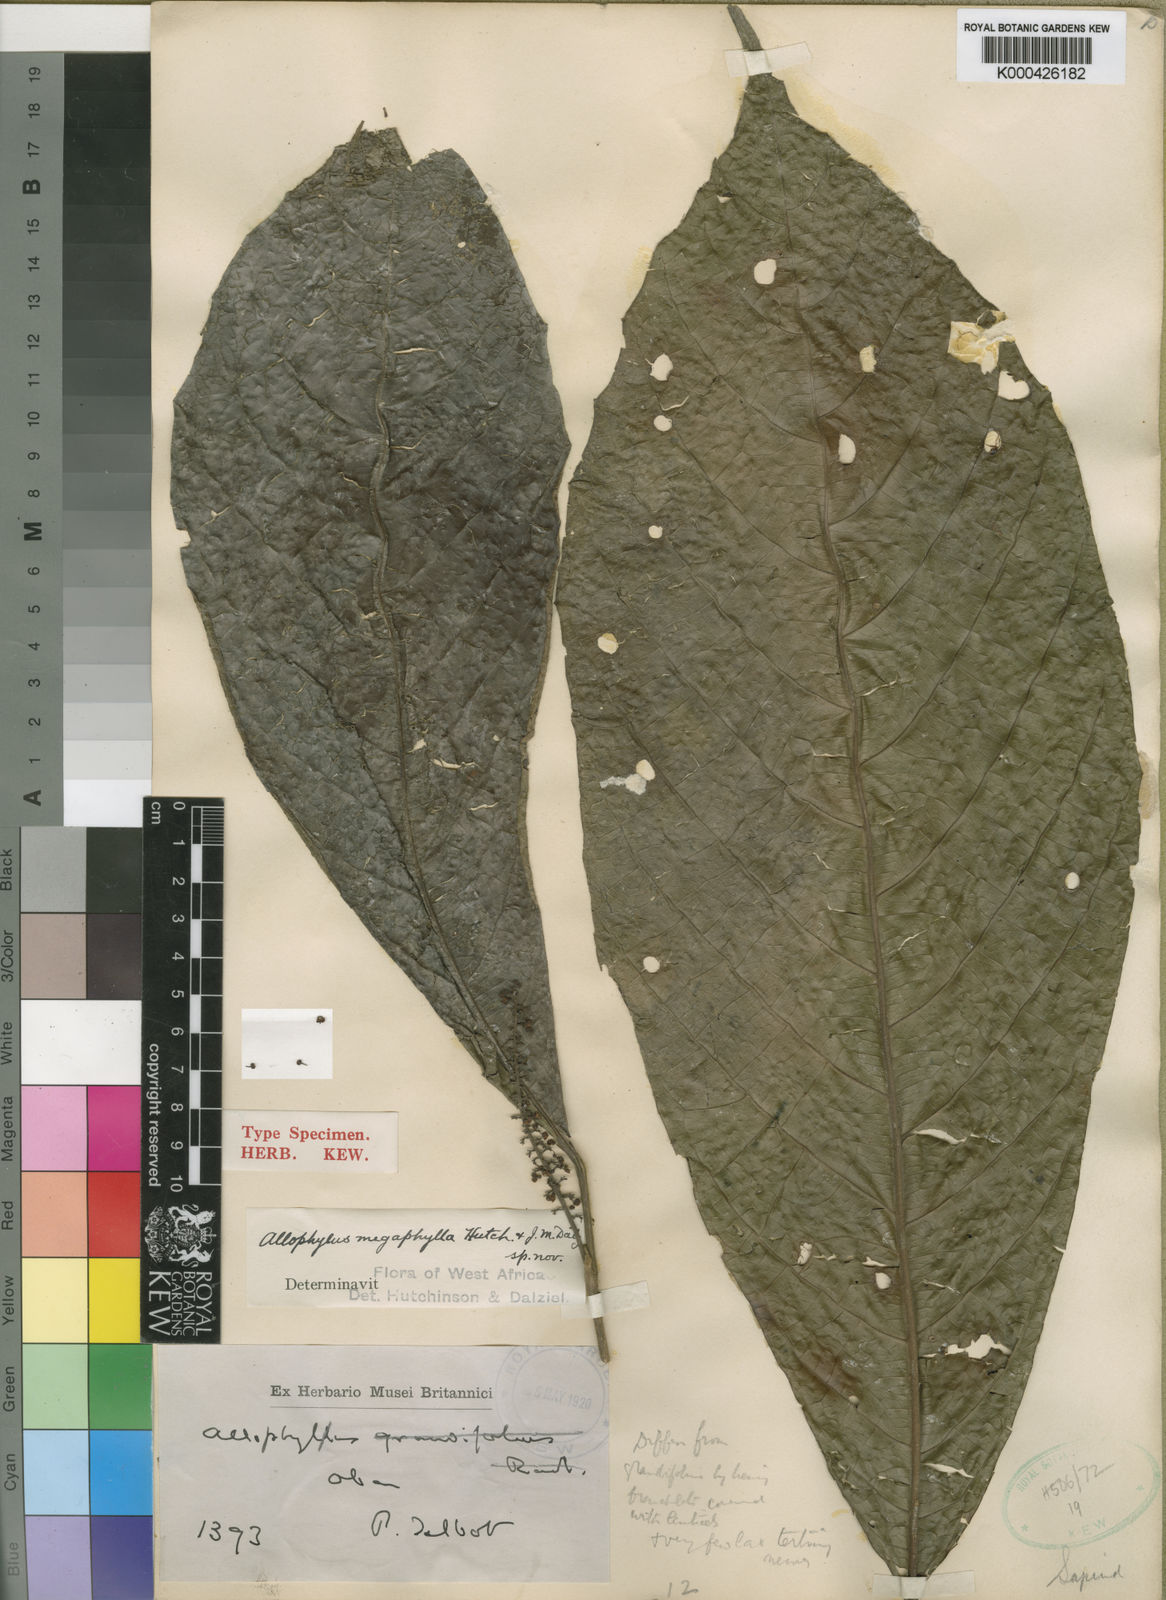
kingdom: Plantae
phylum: Tracheophyta
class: Magnoliopsida
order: Sapindales
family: Sapindaceae
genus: Allophylus
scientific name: Allophylus megaphyllus
